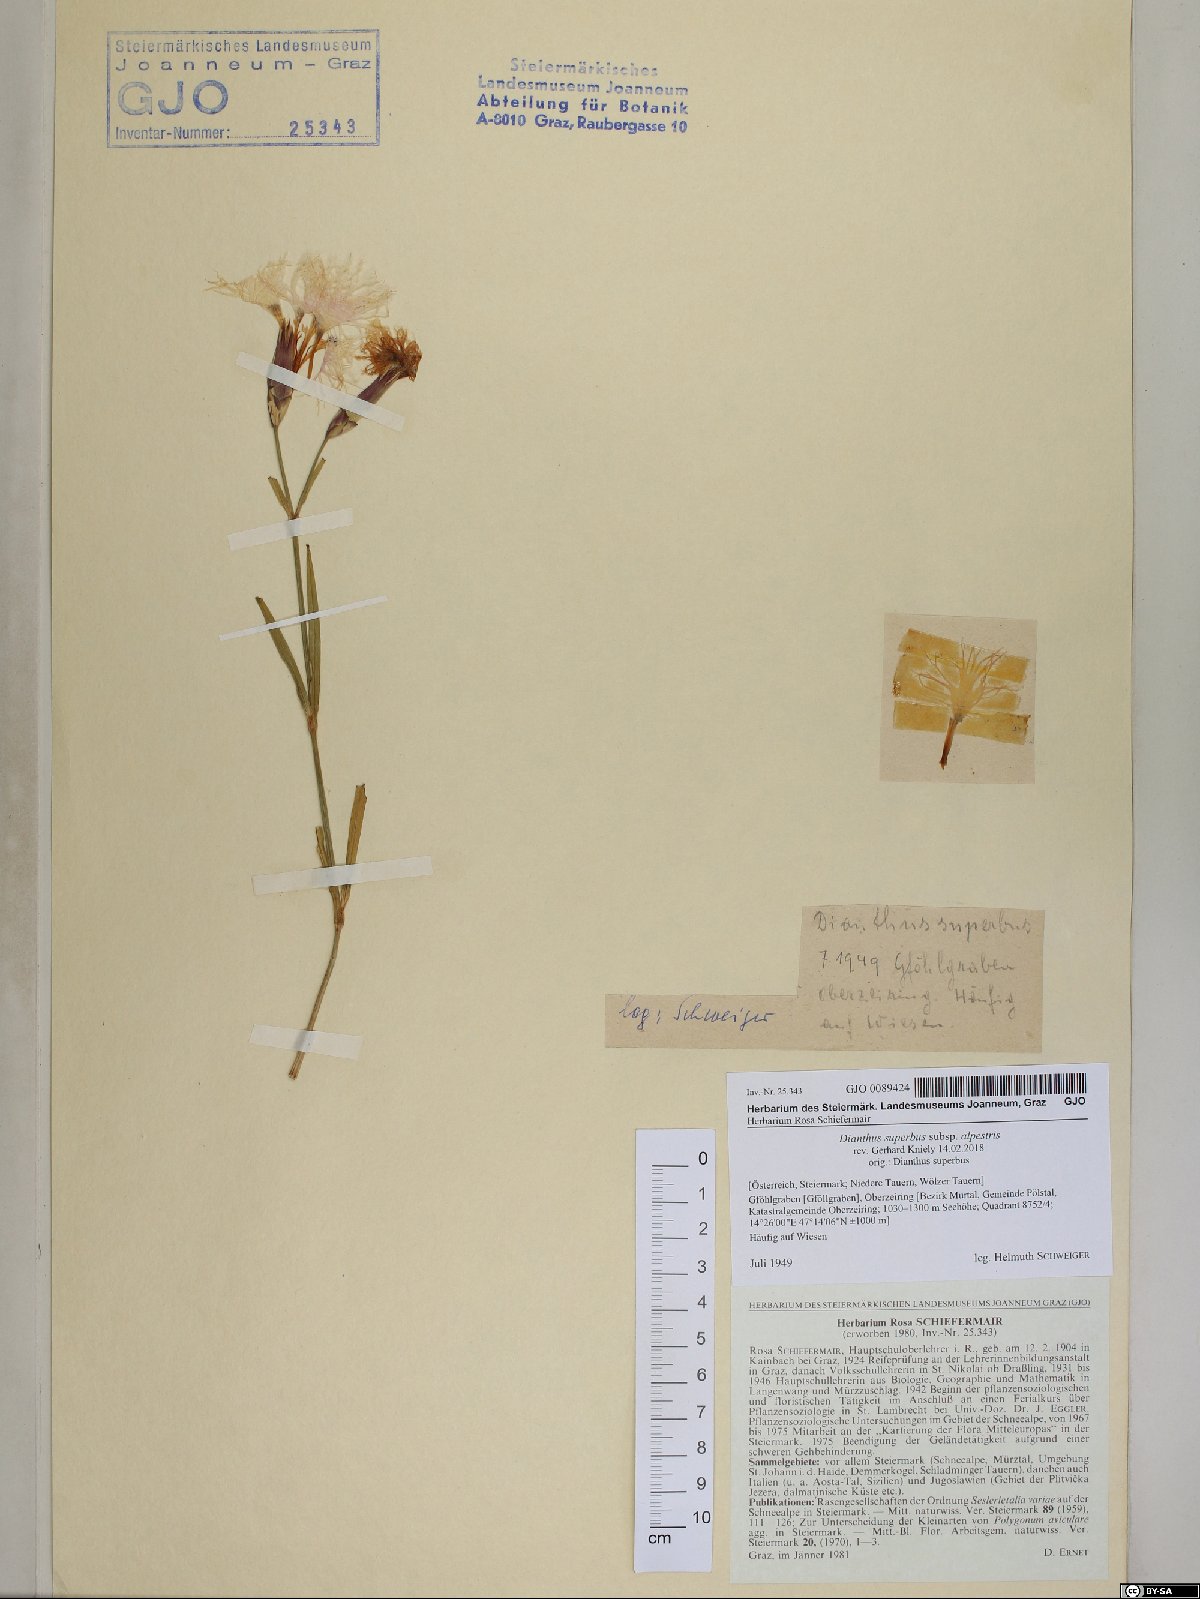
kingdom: Plantae
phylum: Tracheophyta
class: Magnoliopsida
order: Caryophyllales
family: Caryophyllaceae
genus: Dianthus
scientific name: Dianthus superbus
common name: Fringed pink
